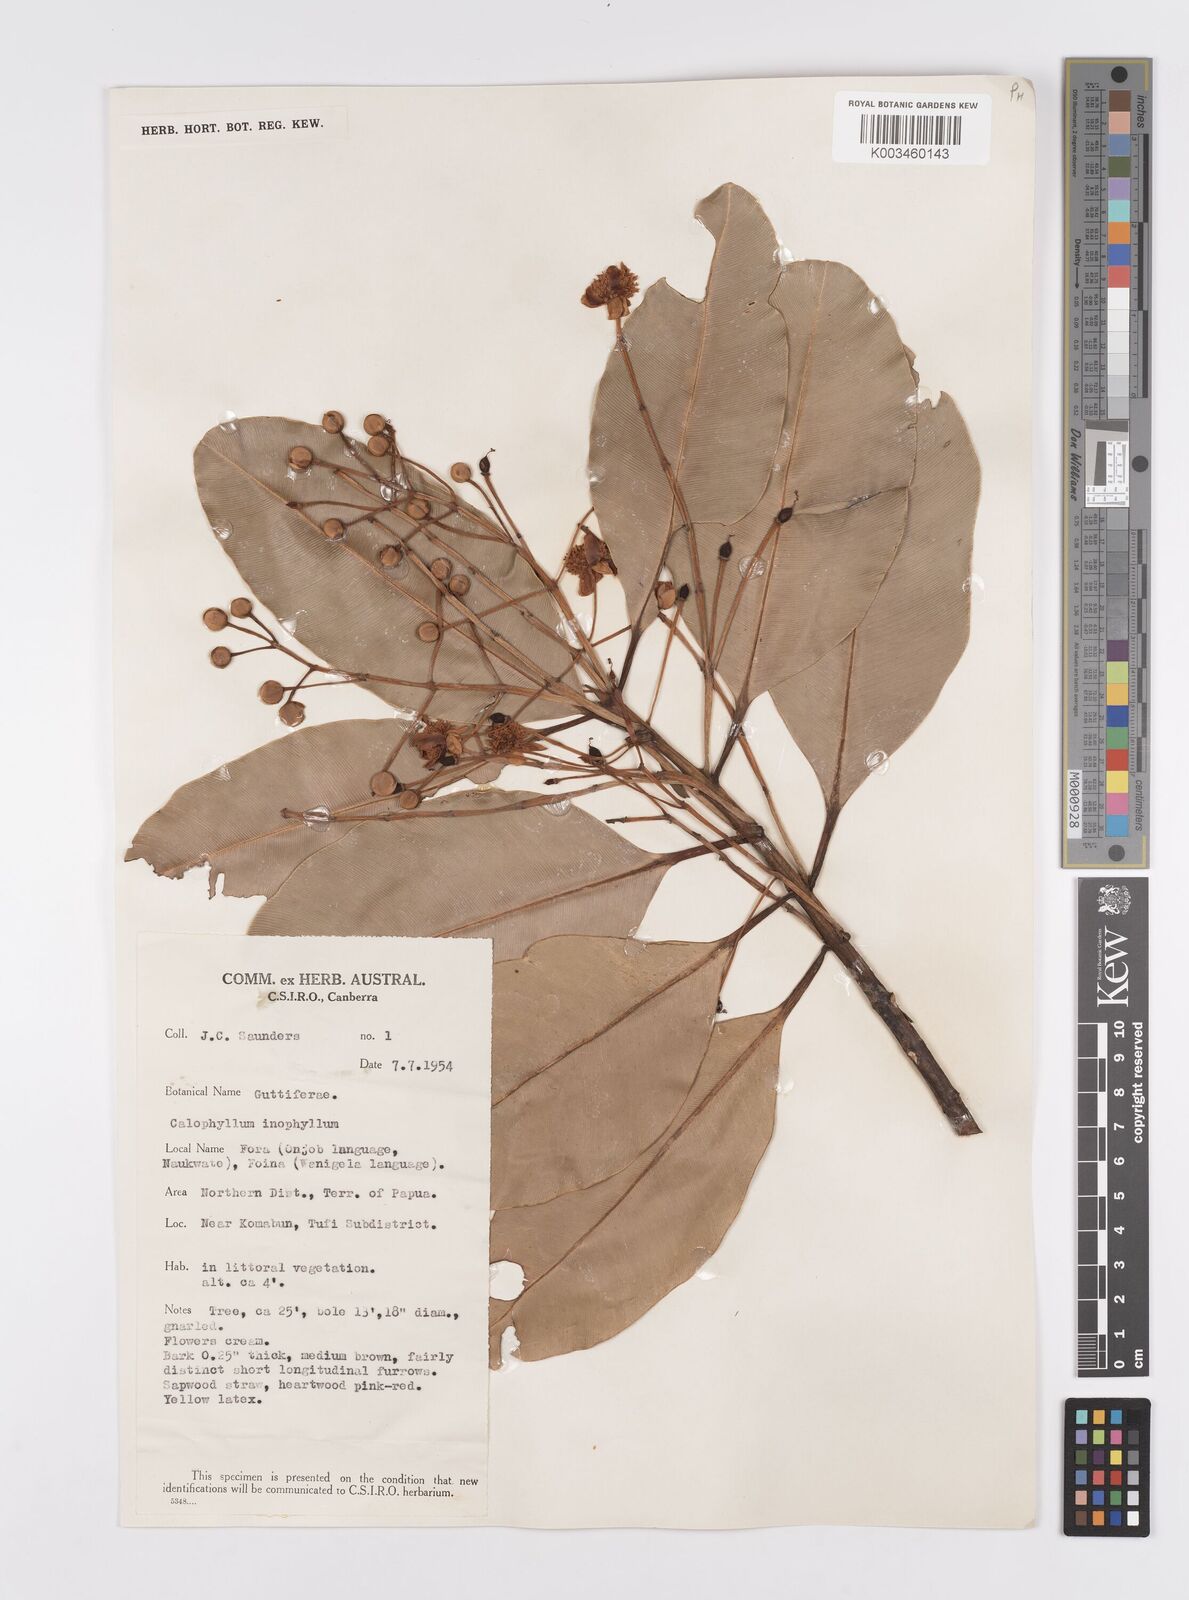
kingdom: Plantae
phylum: Tracheophyta
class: Magnoliopsida
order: Malpighiales
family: Calophyllaceae
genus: Calophyllum
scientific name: Calophyllum inophyllum
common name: Alexandrian laurel
